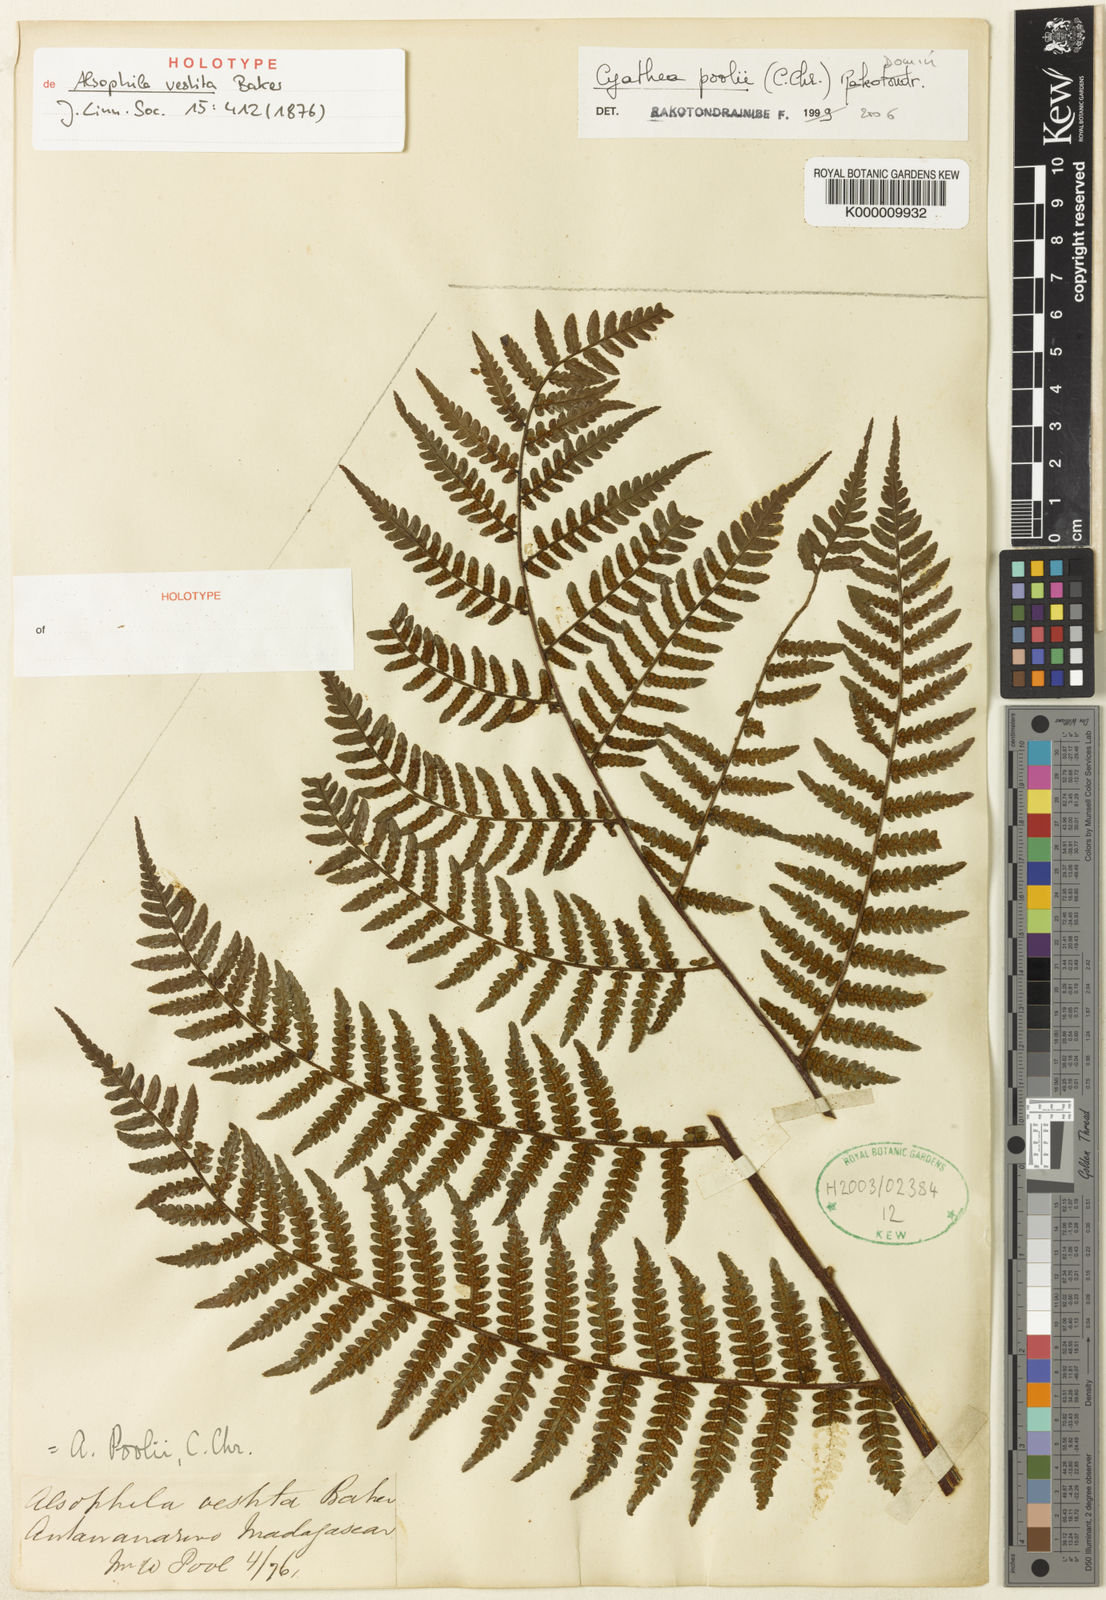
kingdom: Plantae
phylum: Tracheophyta
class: Polypodiopsida
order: Cyatheales
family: Cyatheaceae
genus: Gymnosphaera
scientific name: Gymnosphaera poolii
